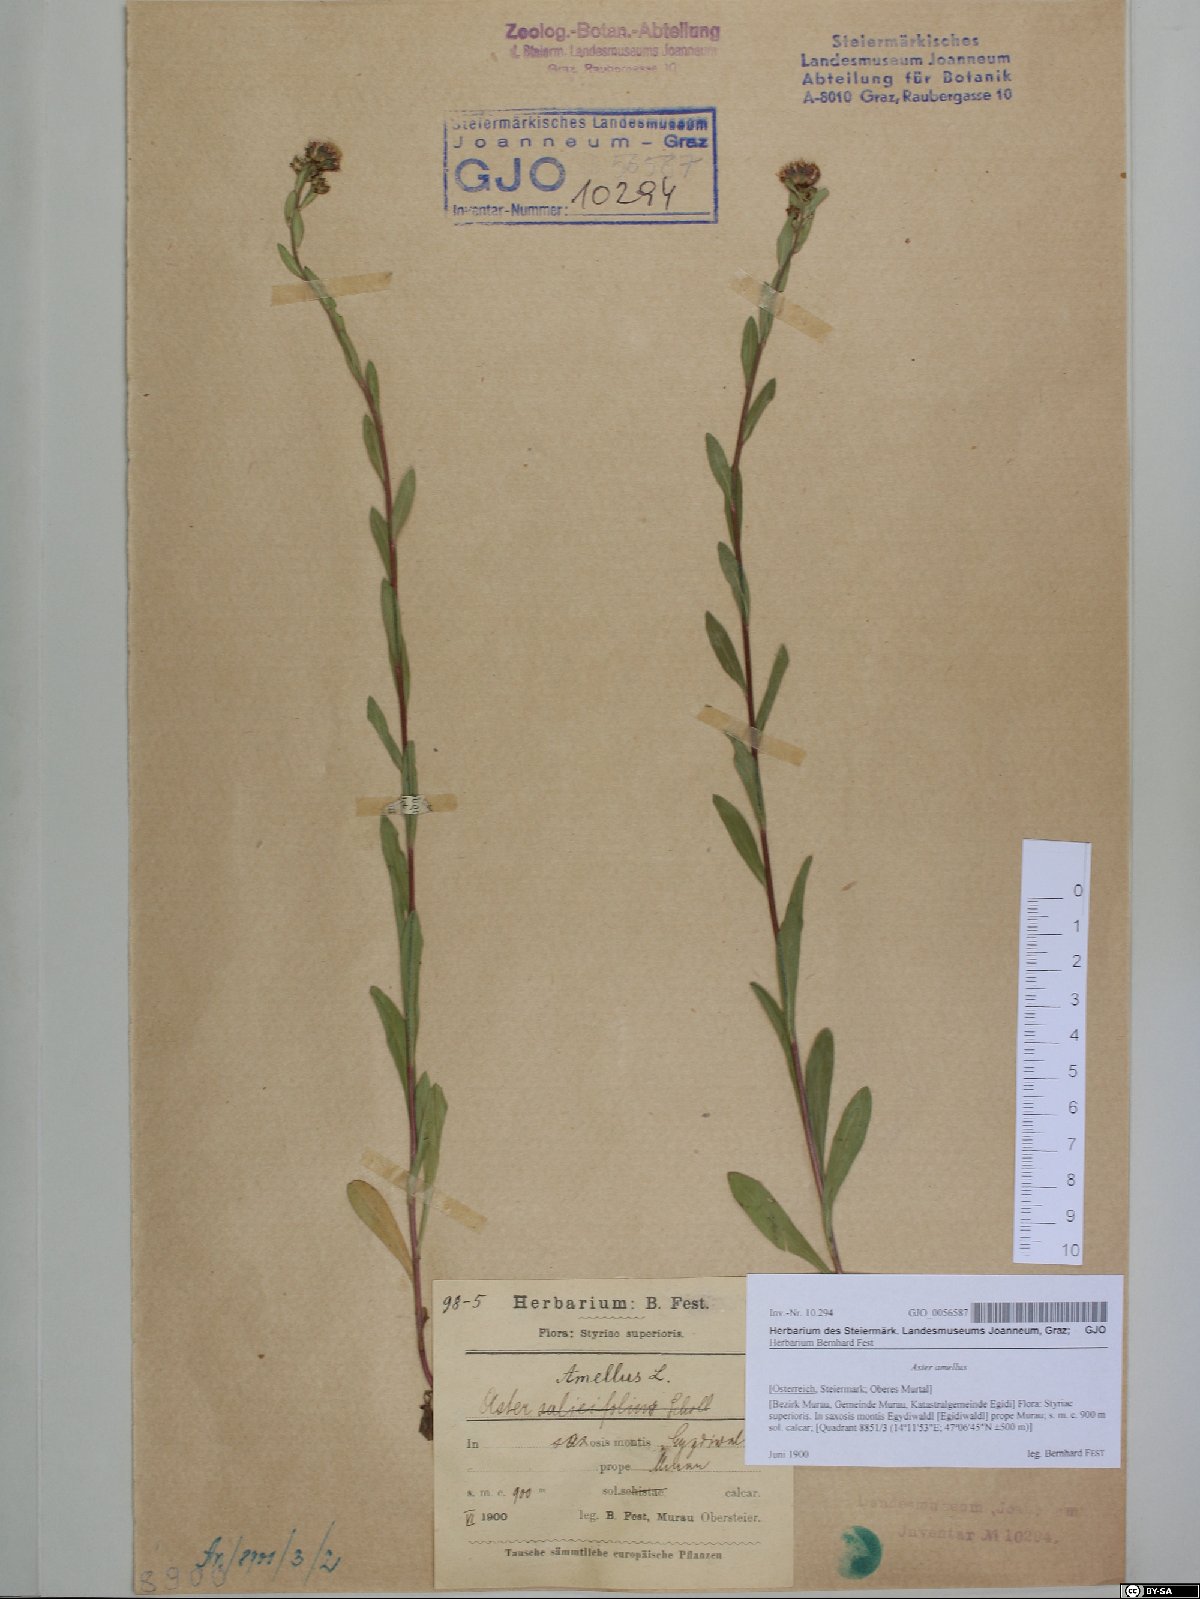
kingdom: Plantae
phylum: Tracheophyta
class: Magnoliopsida
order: Asterales
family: Asteraceae
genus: Aster
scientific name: Aster amellus
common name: European michaelmas daisy
